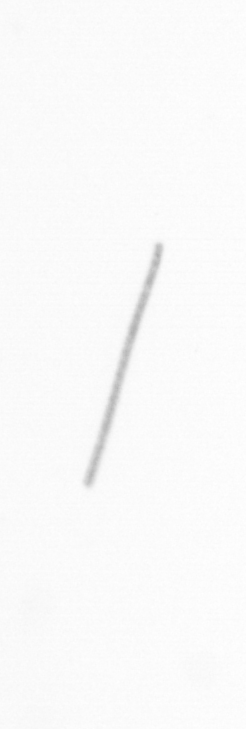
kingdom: Chromista
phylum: Ochrophyta
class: Bacillariophyceae
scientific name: Bacillariophyceae
